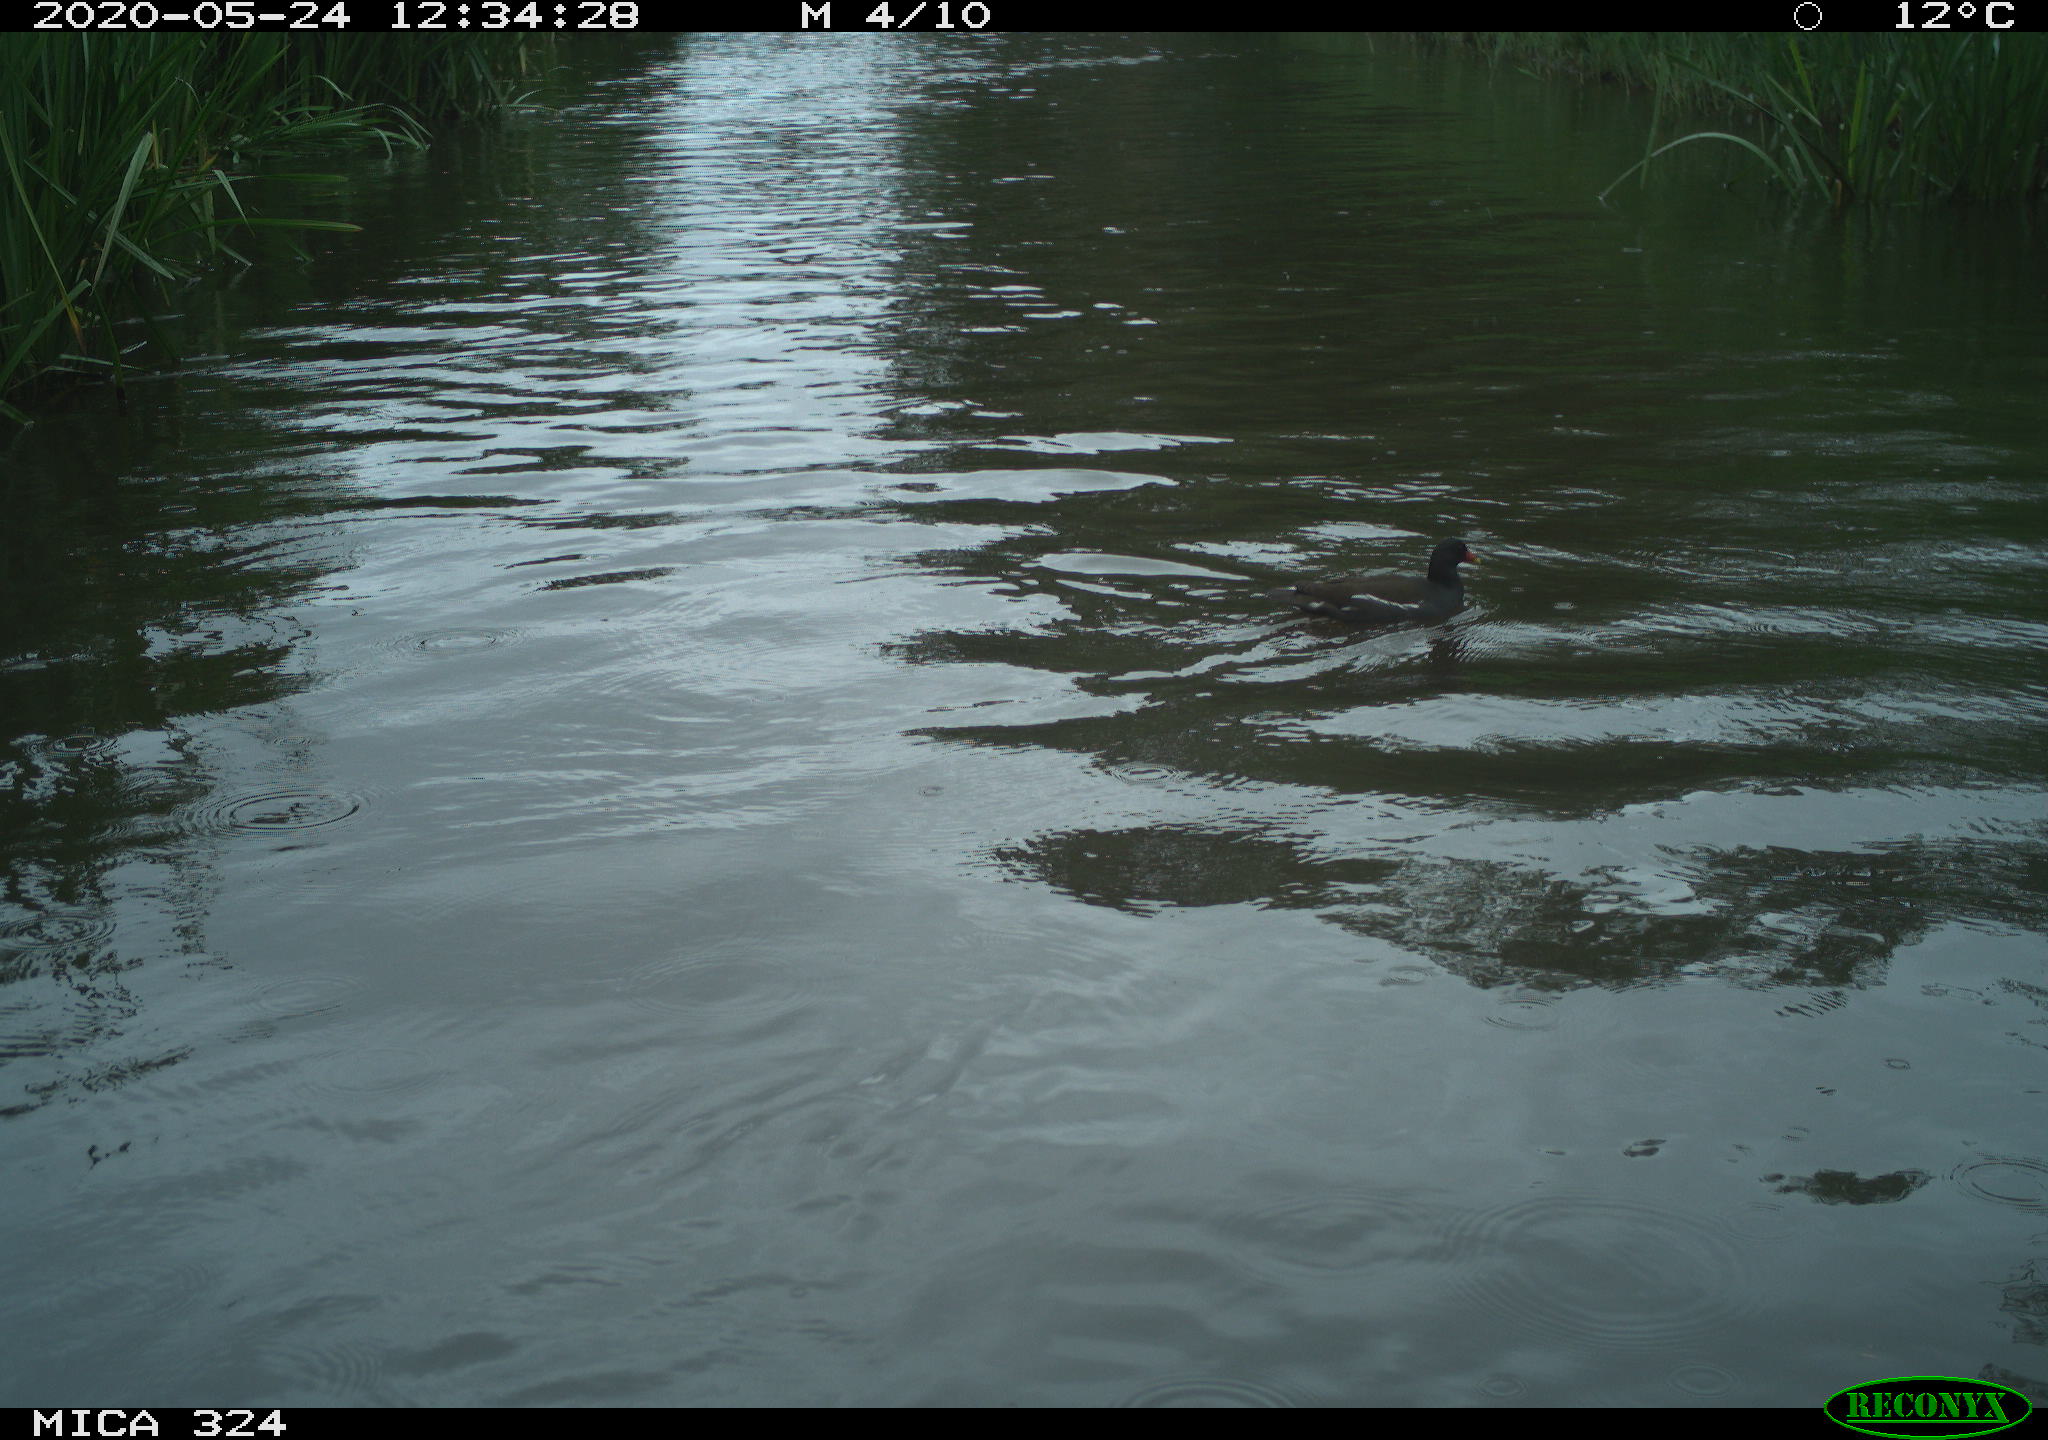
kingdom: Animalia
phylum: Chordata
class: Aves
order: Gruiformes
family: Rallidae
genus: Gallinula
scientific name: Gallinula chloropus
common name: Common moorhen
